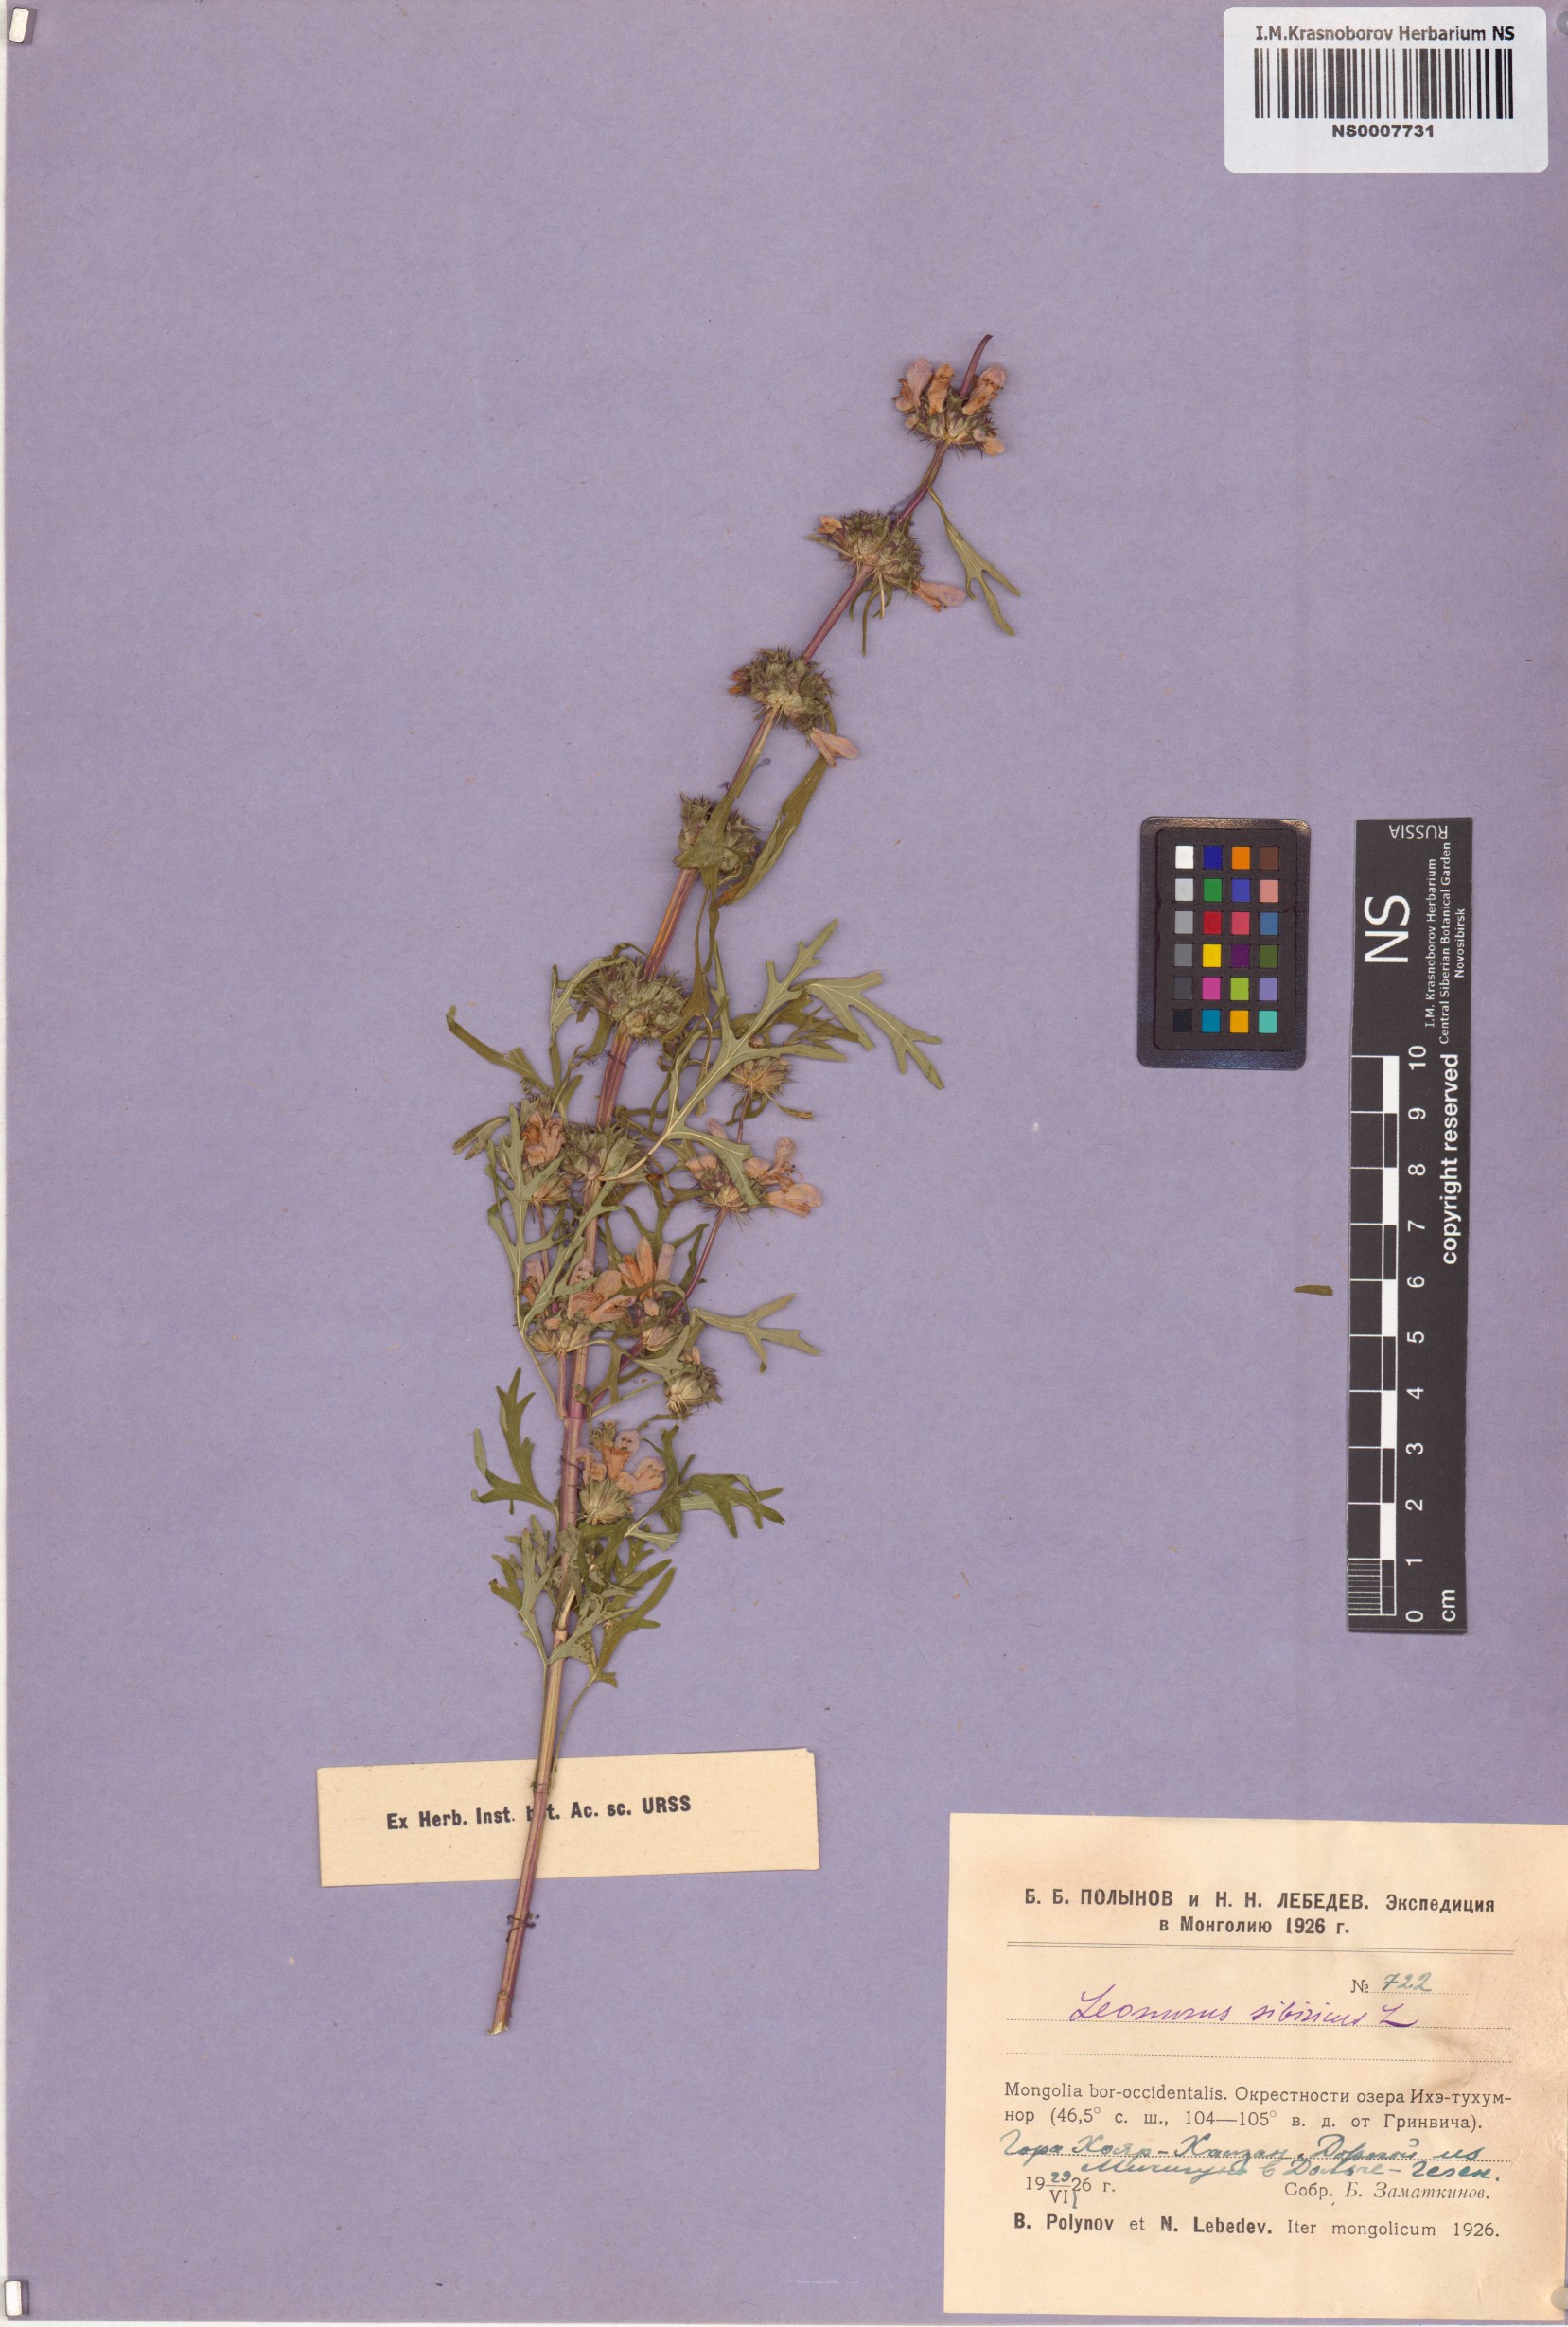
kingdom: Plantae
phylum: Tracheophyta
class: Magnoliopsida
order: Lamiales
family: Lamiaceae
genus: Leonurus
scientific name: Leonurus sibiricus
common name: Honeyweed
